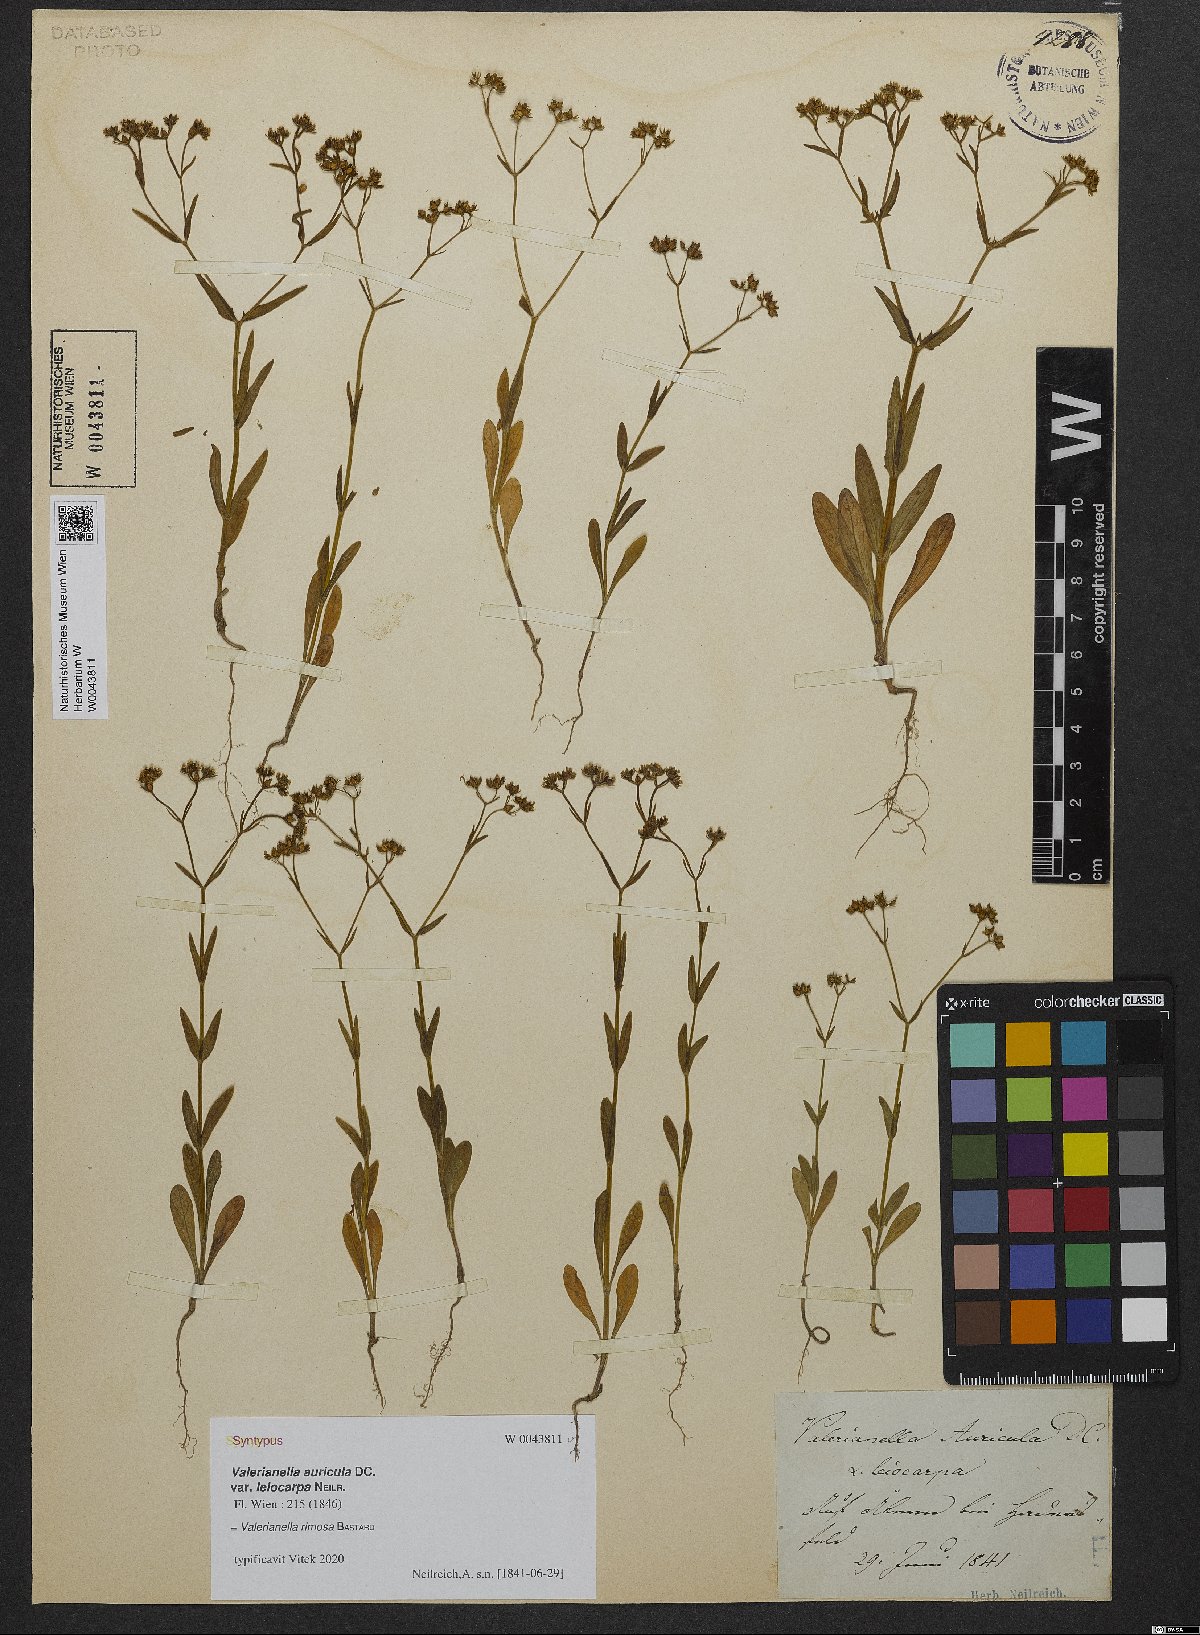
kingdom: Plantae
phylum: Tracheophyta
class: Magnoliopsida
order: Dipsacales
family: Caprifoliaceae
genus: Valerianella
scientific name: Valerianella rimosa
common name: Broad-fruited cornsalad
